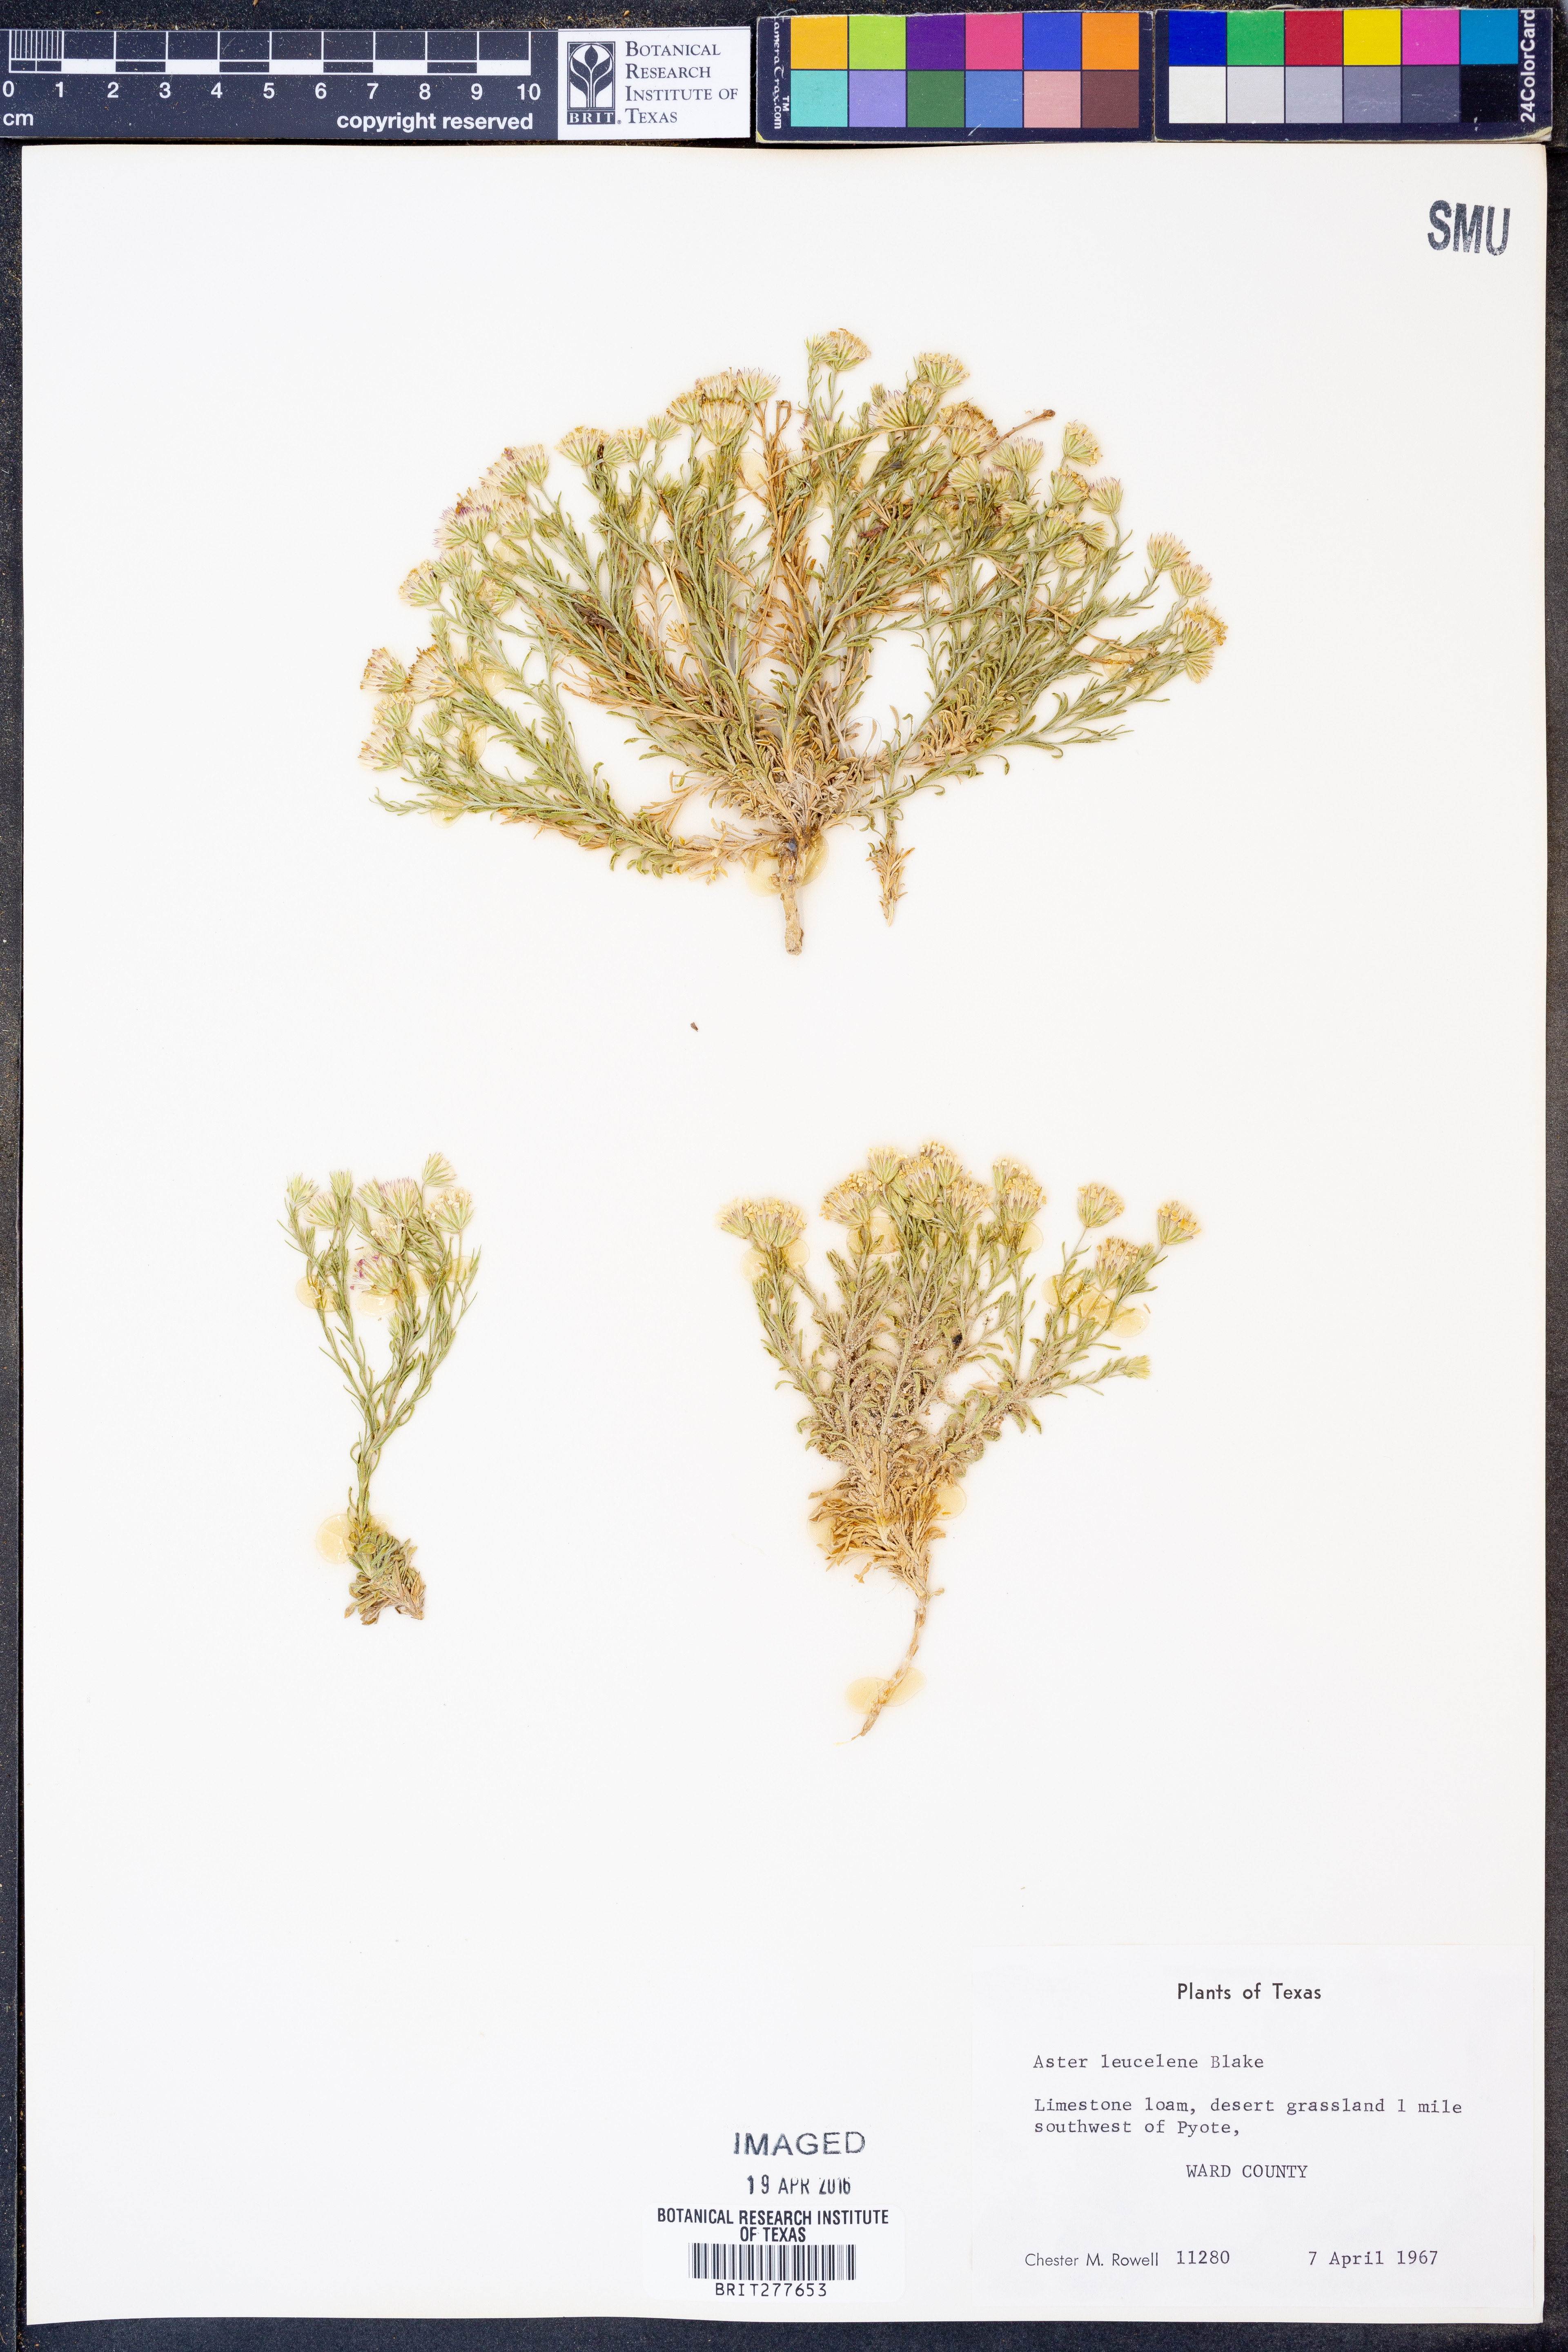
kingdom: Plantae
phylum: Tracheophyta
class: Magnoliopsida
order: Asterales
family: Asteraceae
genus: Chaetopappa
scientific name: Chaetopappa ericoides
